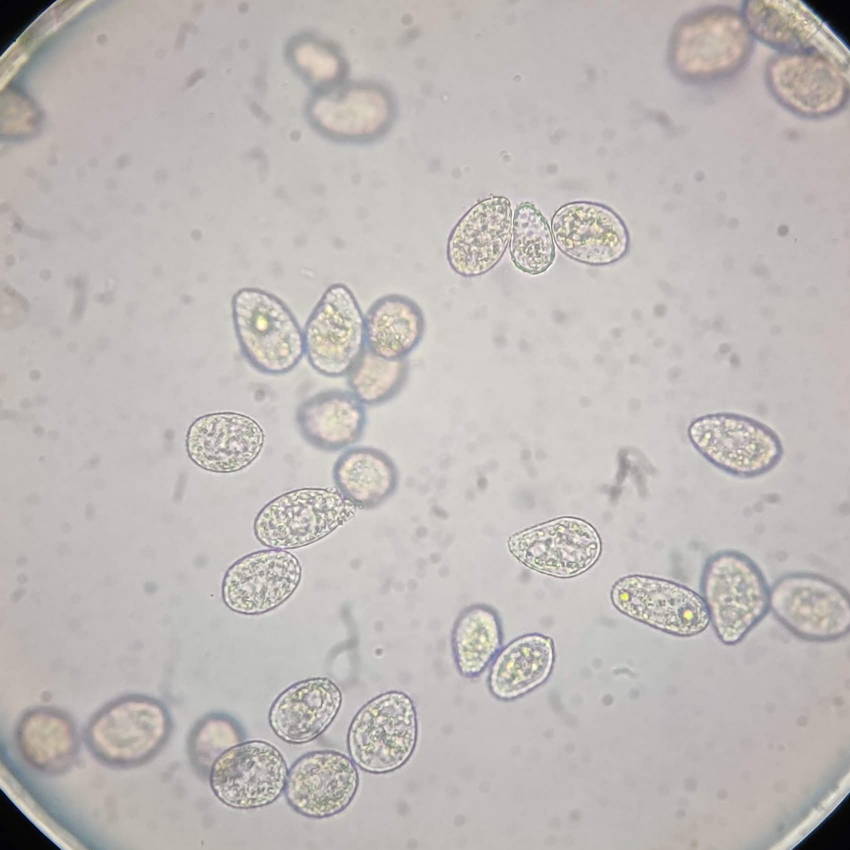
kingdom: Fungi
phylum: Basidiomycota
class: Pucciniomycetes
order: Pucciniales
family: Phragmidiaceae
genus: Phragmidium
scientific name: Phragmidium violaceum
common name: violet flercellerust
